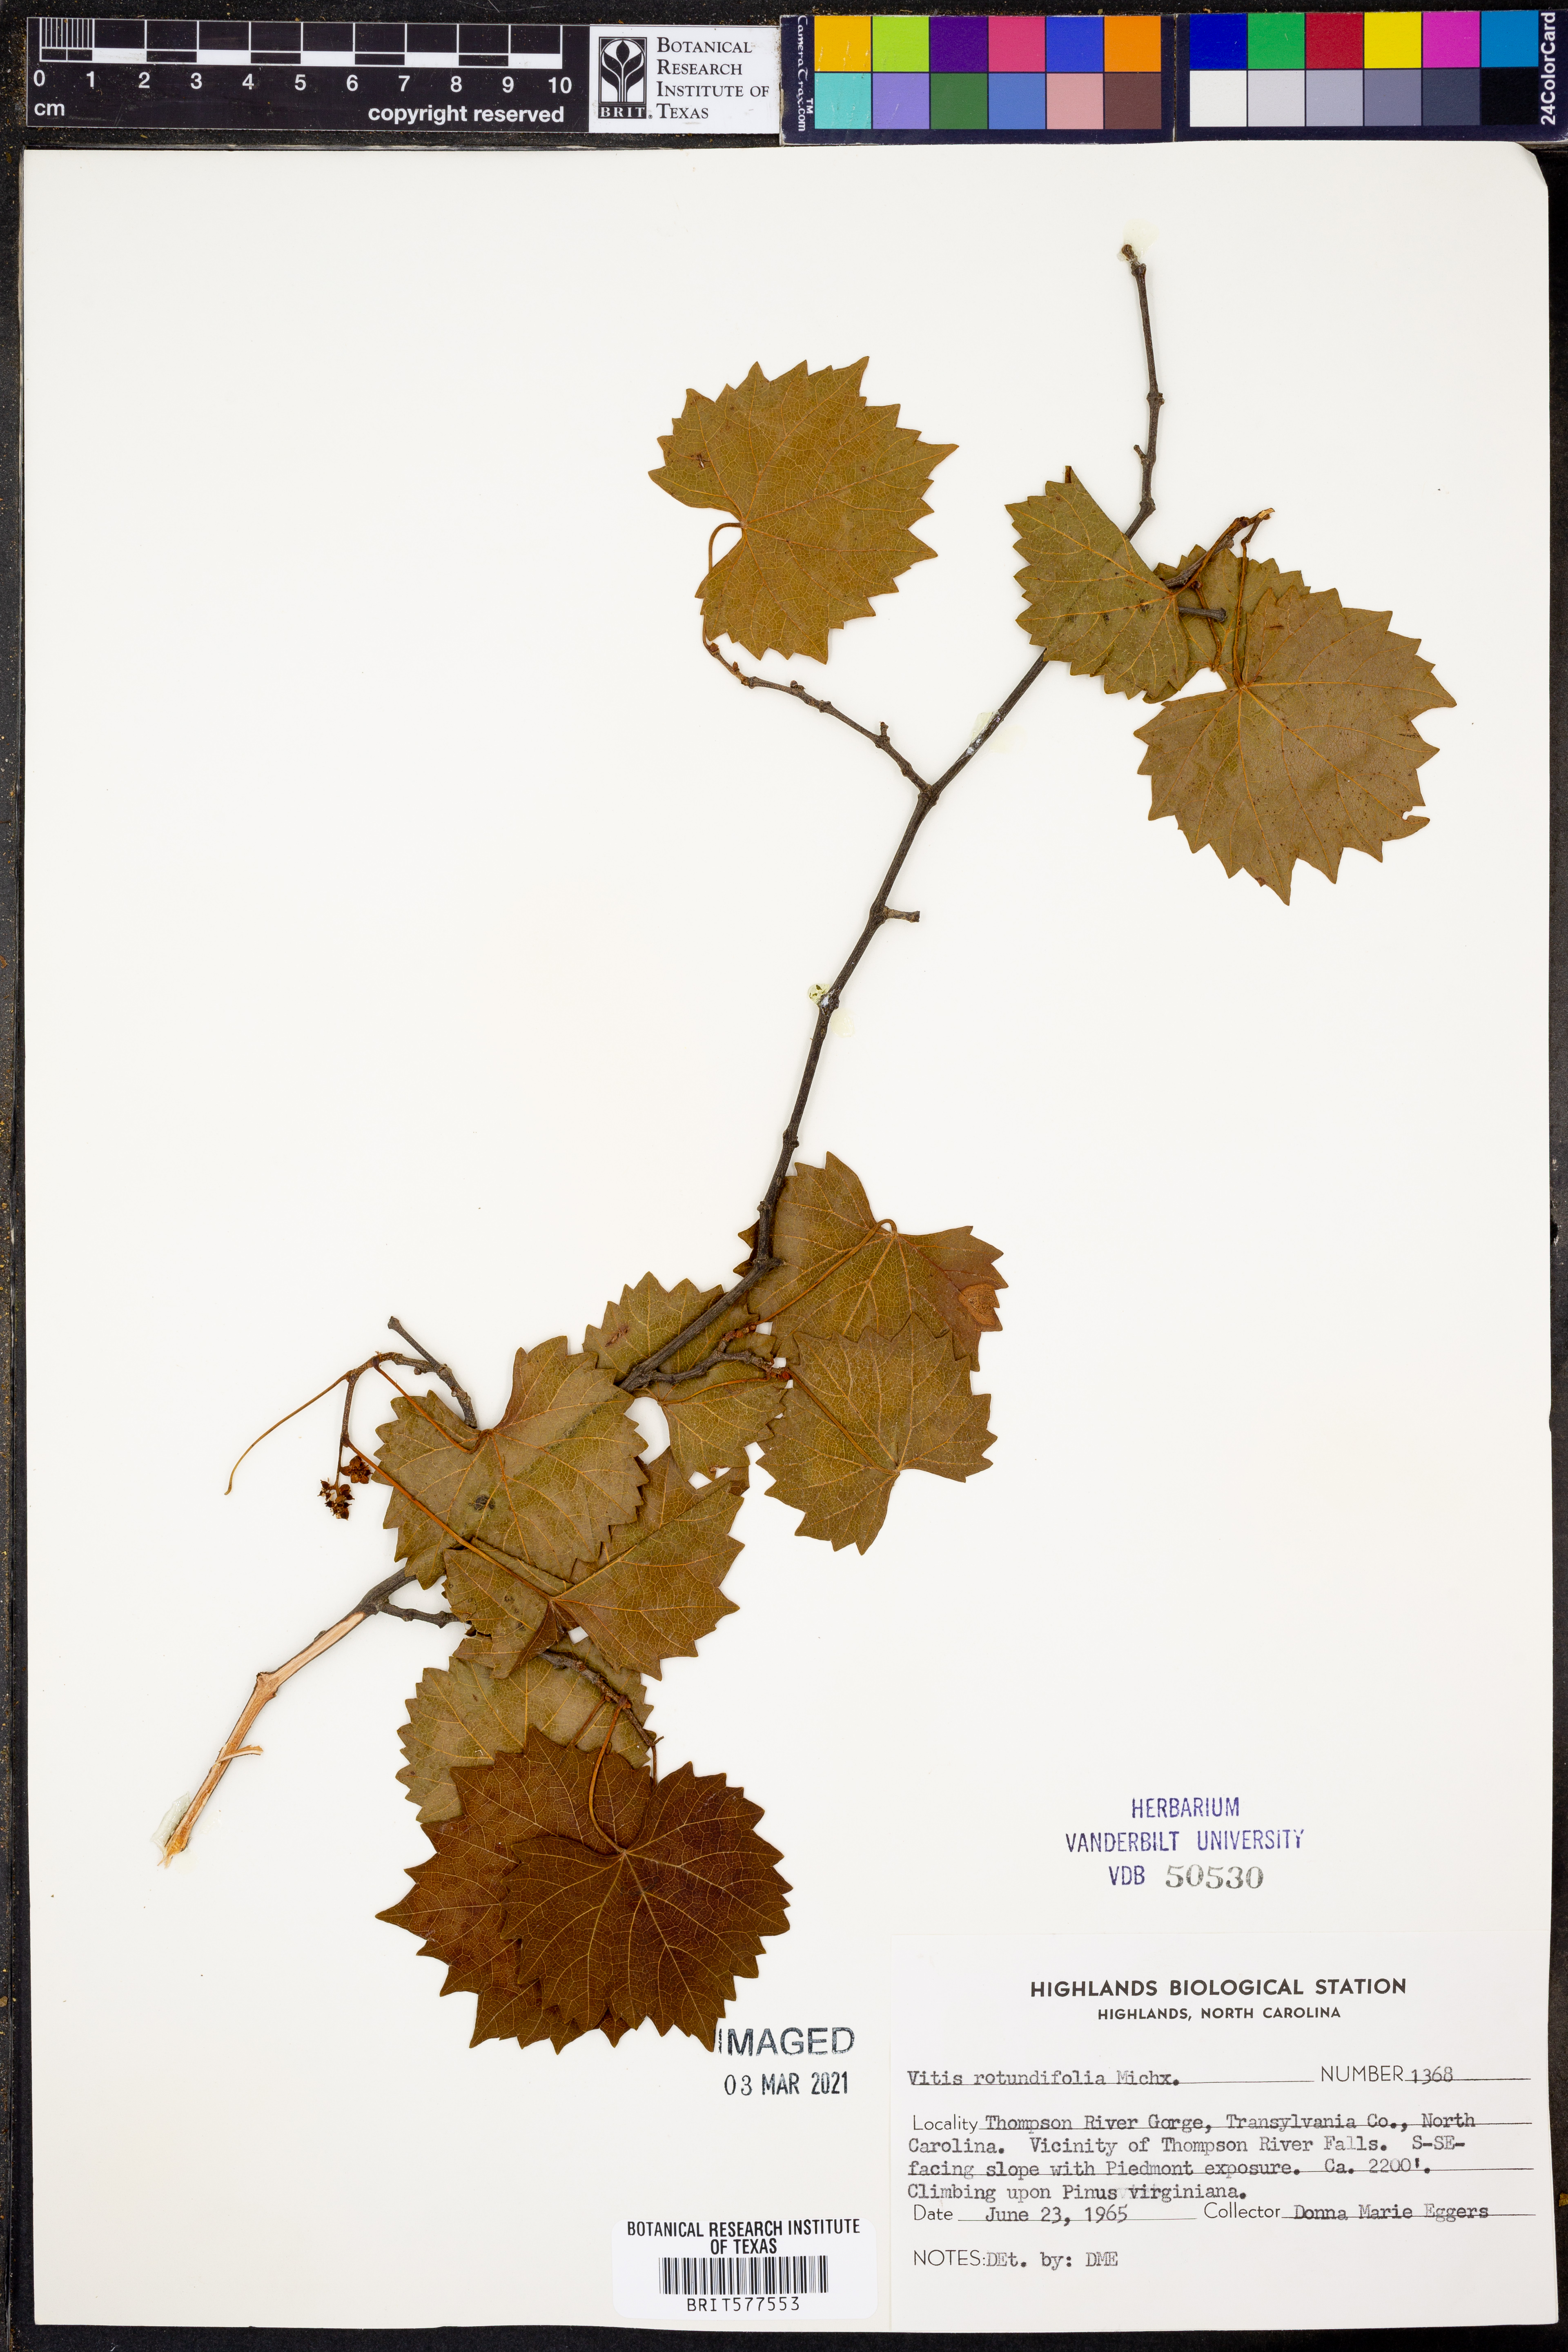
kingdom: Plantae
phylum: Tracheophyta
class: Magnoliopsida
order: Vitales
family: Vitaceae
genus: Vitis
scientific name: Vitis rotundifolia
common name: Muscadine grape
